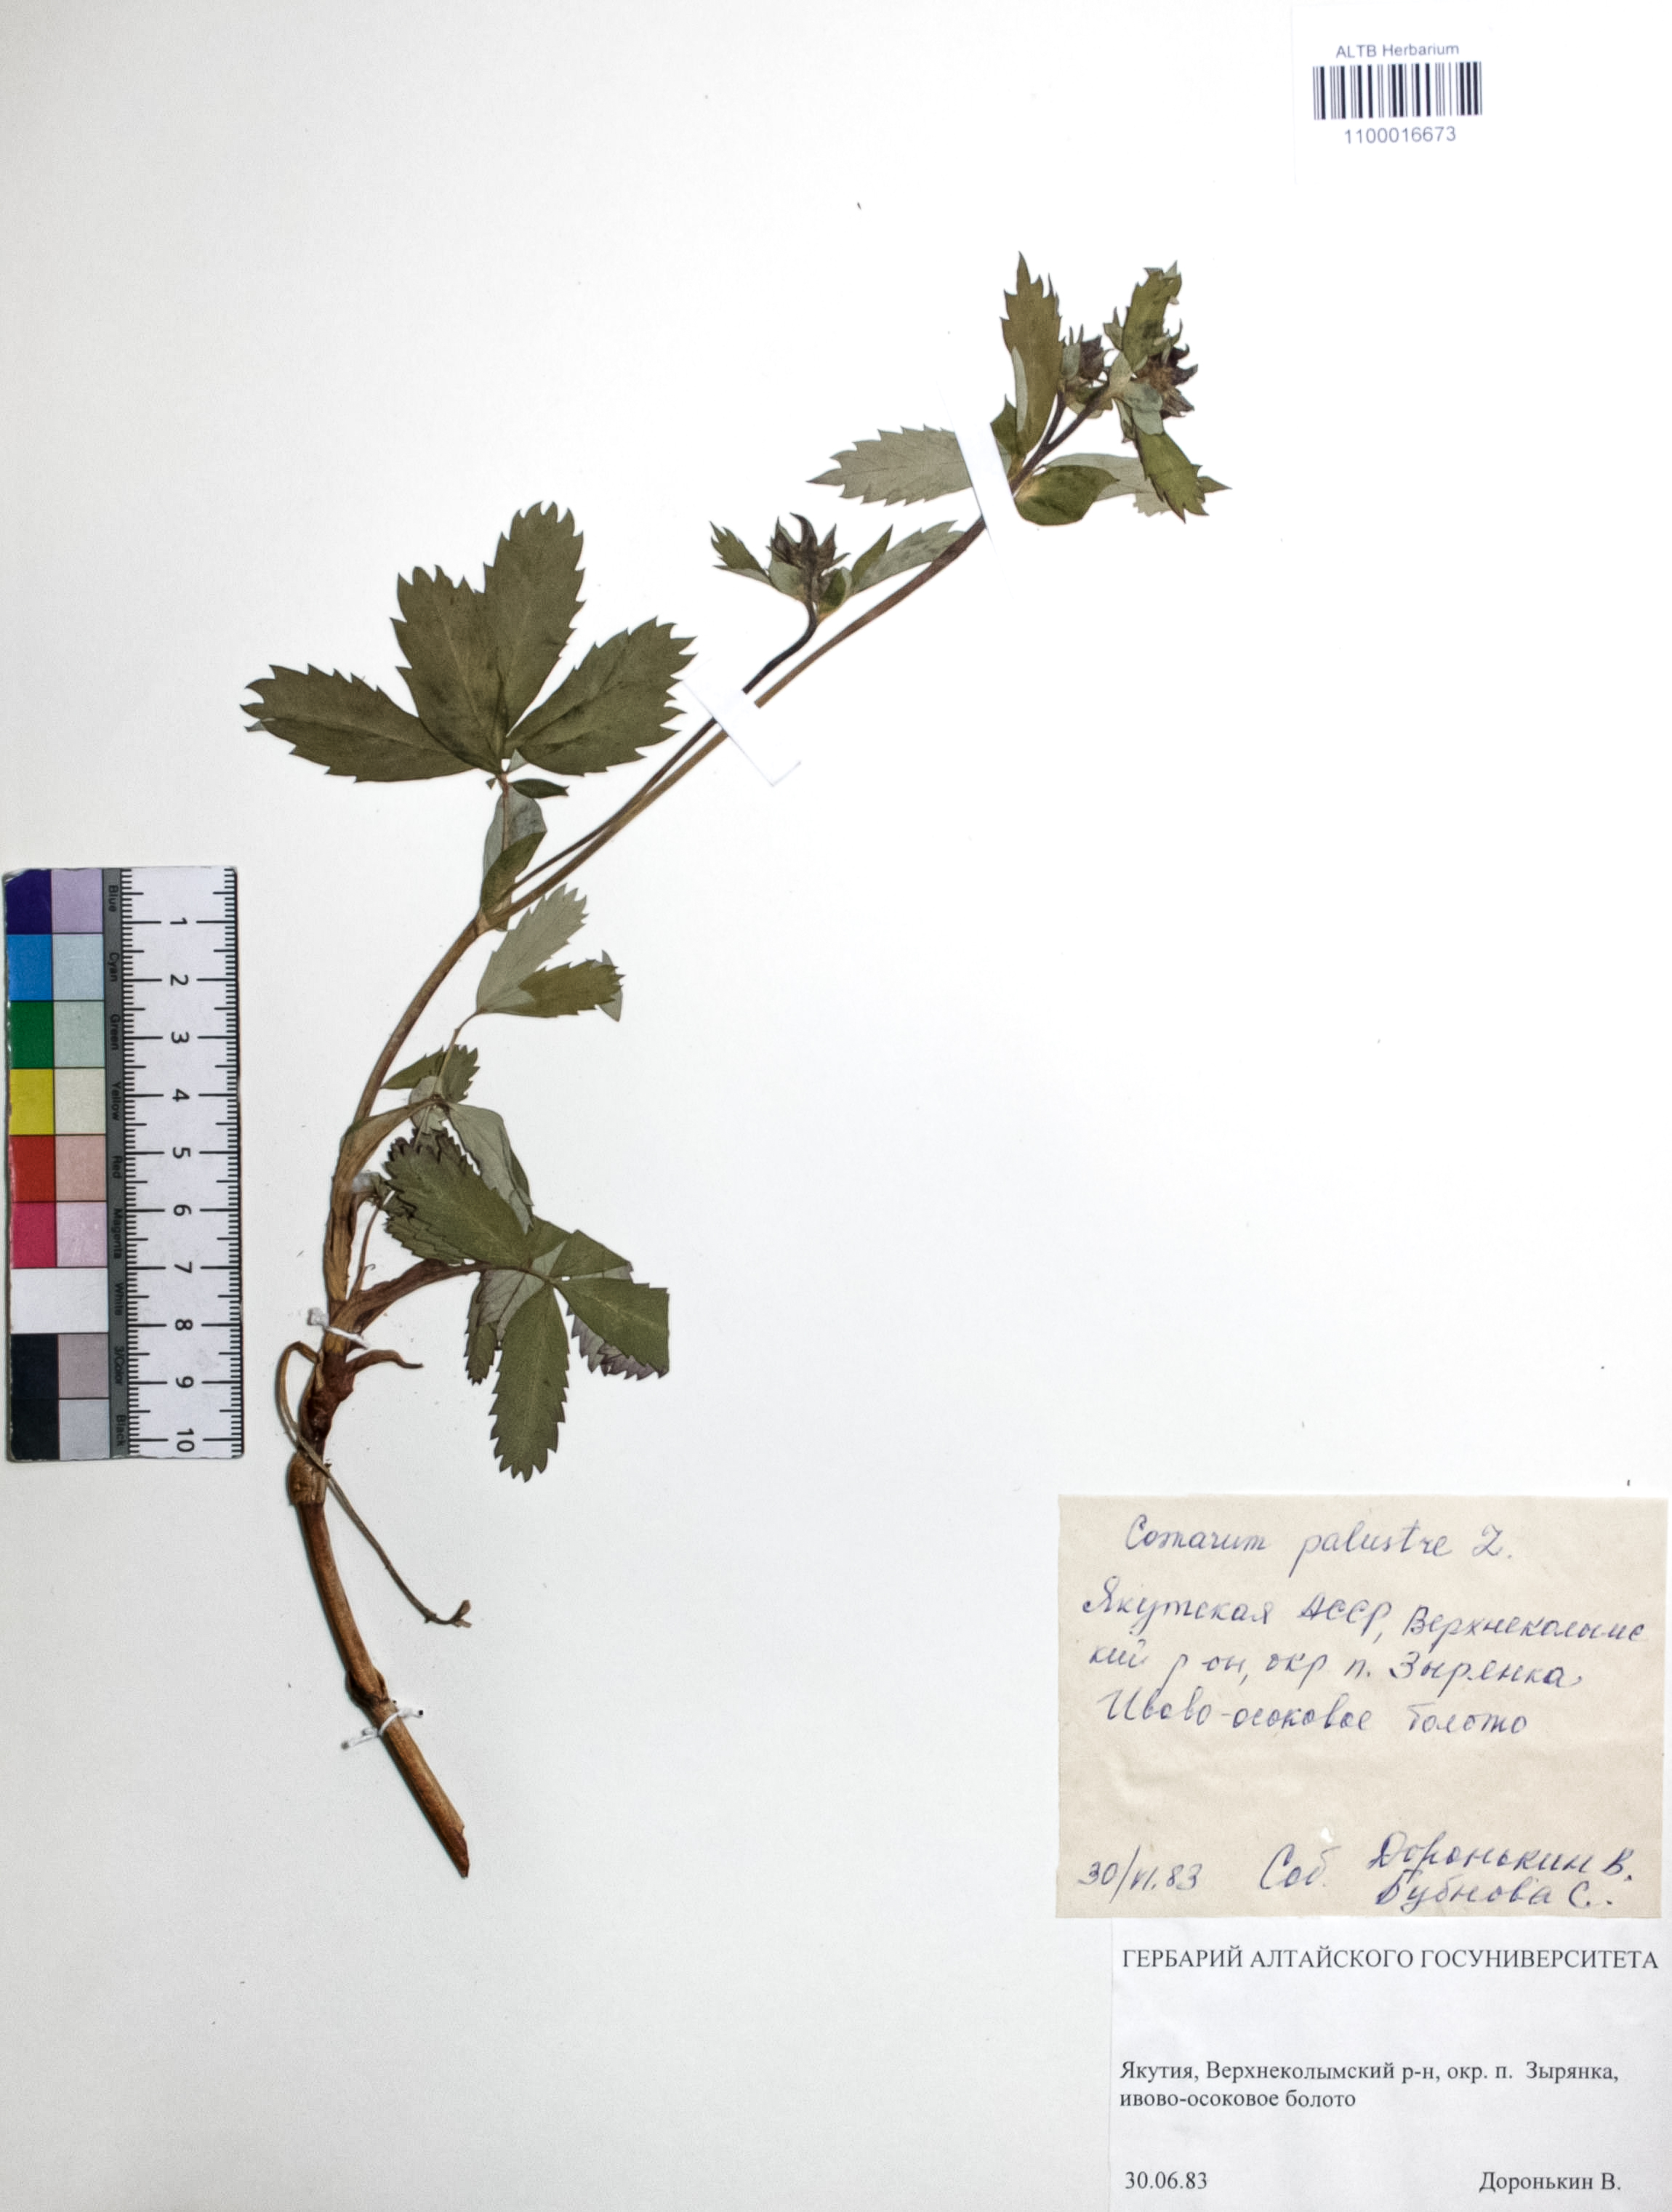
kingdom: Plantae
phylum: Tracheophyta
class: Magnoliopsida
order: Rosales
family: Rosaceae
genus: Comarum
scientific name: Comarum palustre
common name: Marsh cinquefoil
